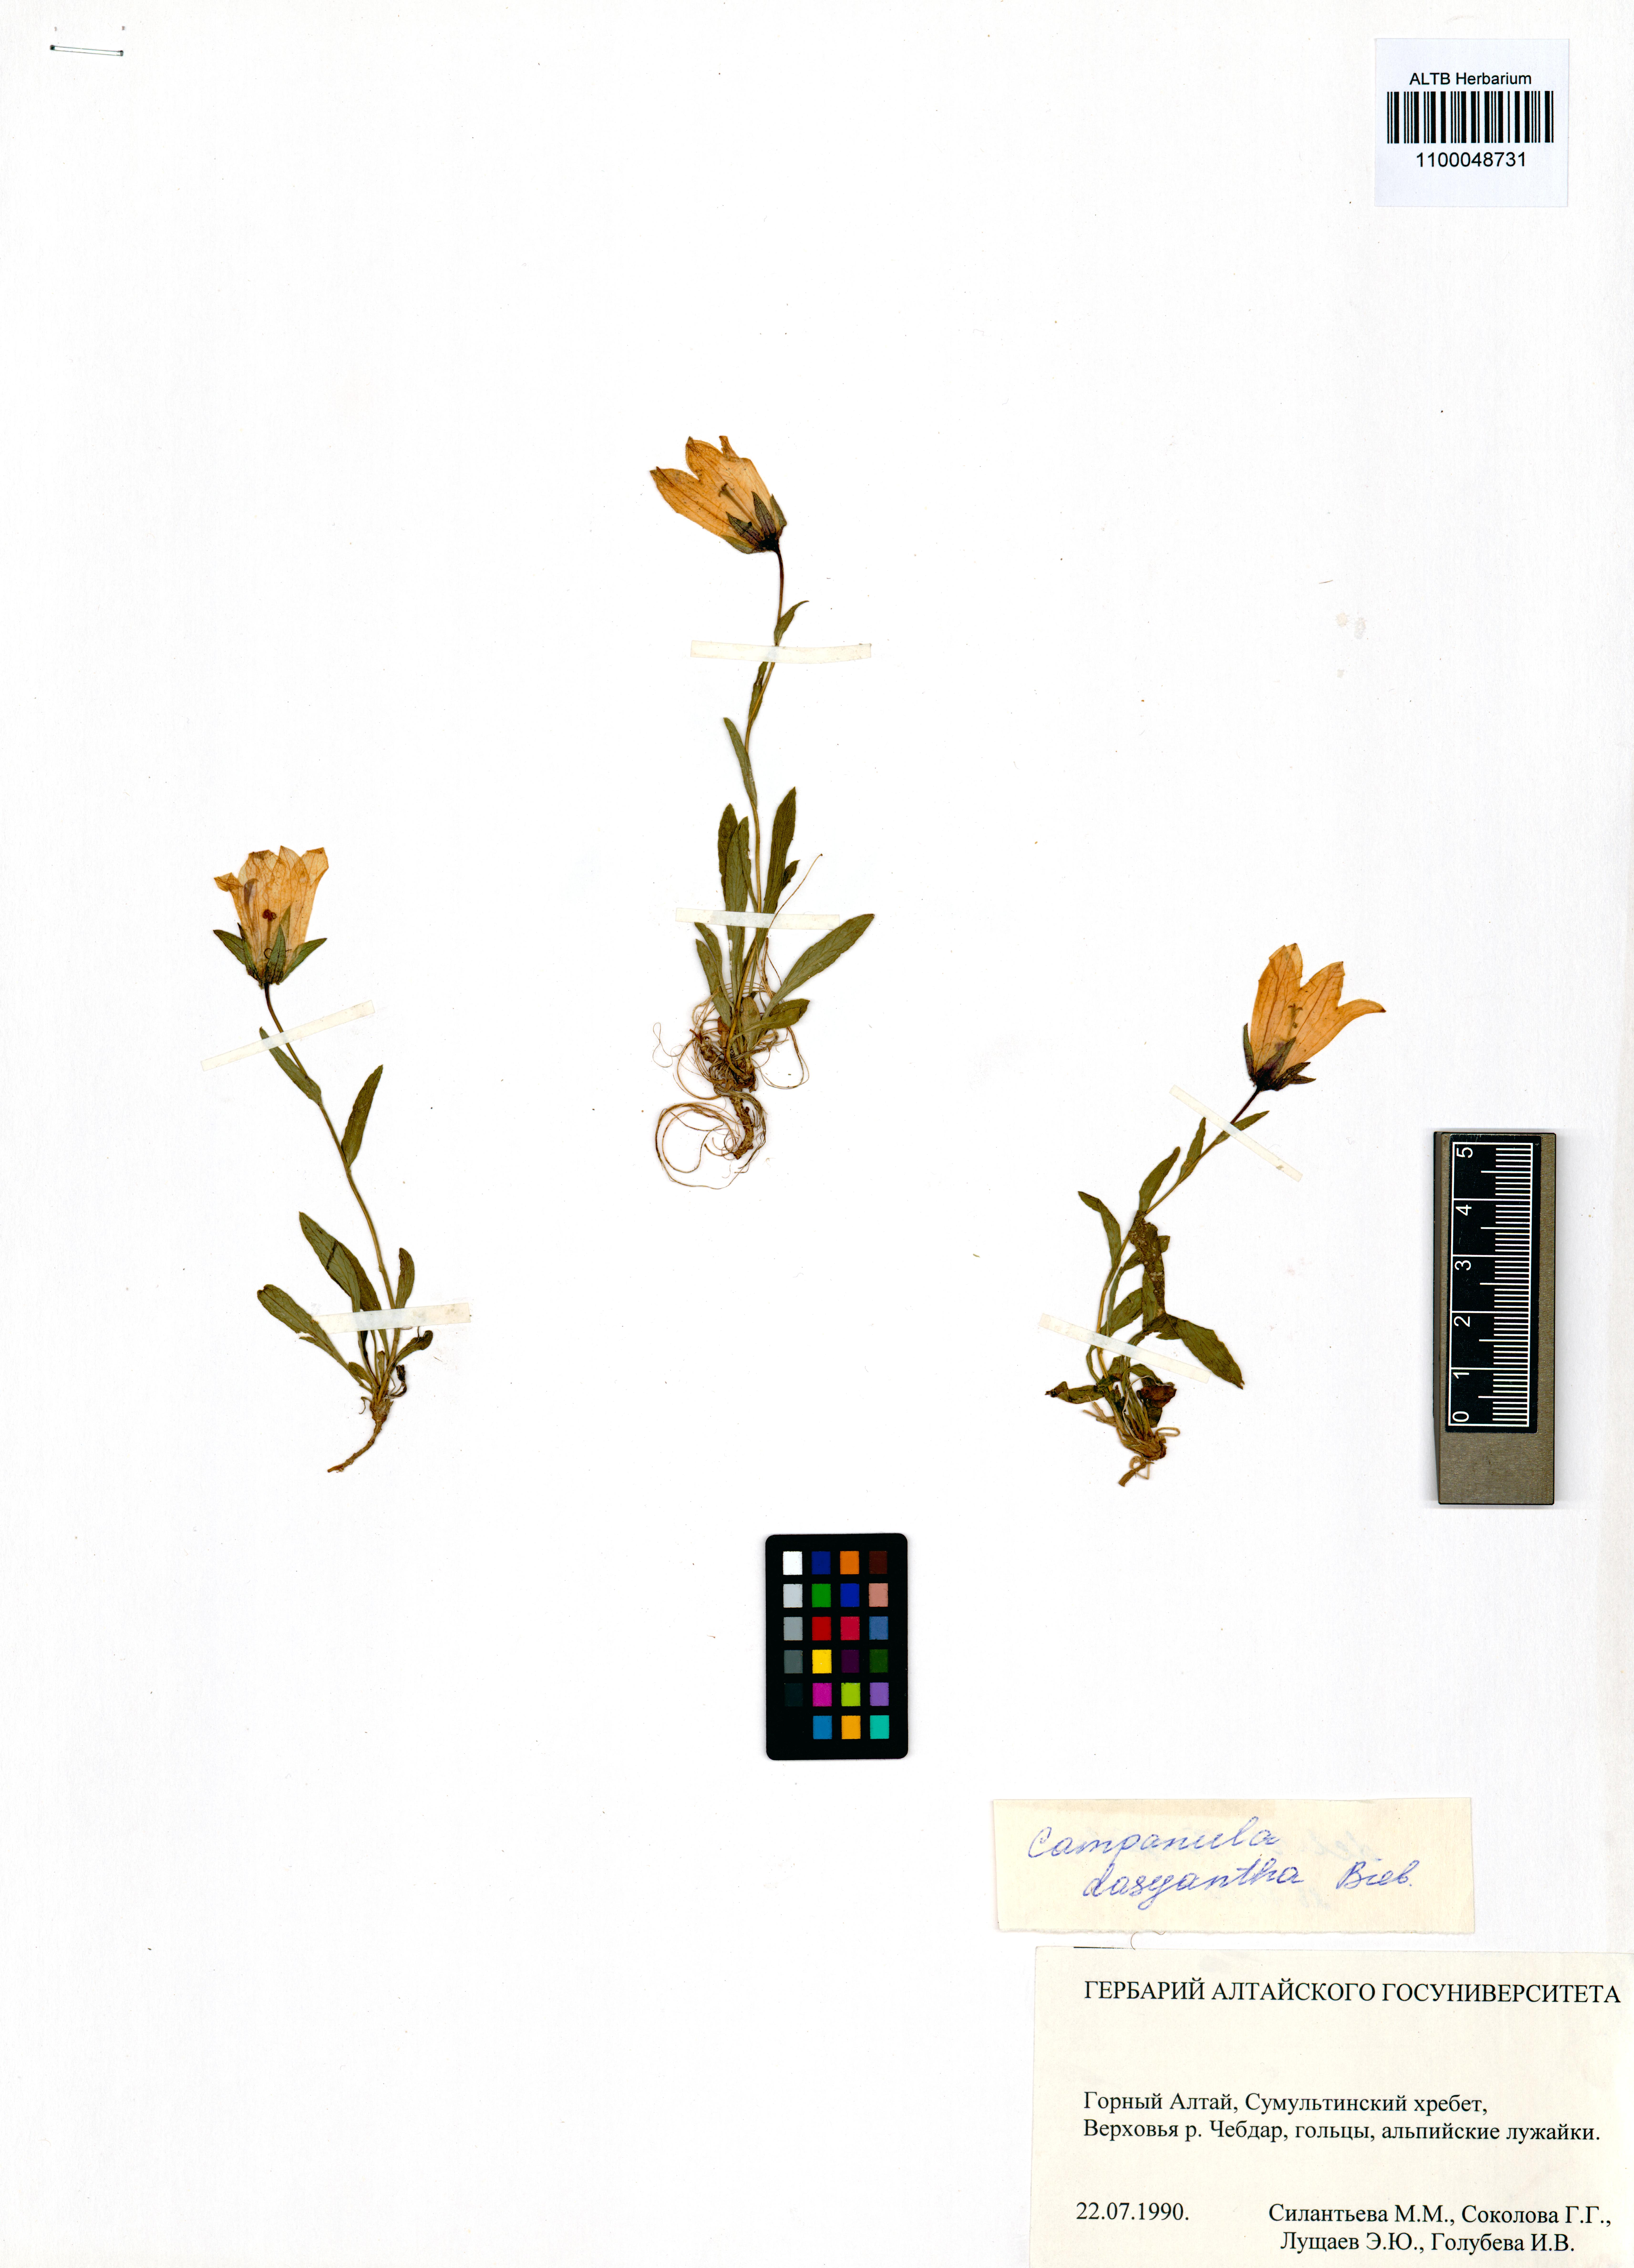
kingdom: Plantae
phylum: Tracheophyta
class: Magnoliopsida
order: Asterales
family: Campanulaceae
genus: Campanula
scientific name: Campanula dasyantha
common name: Hairyflower bellflower
